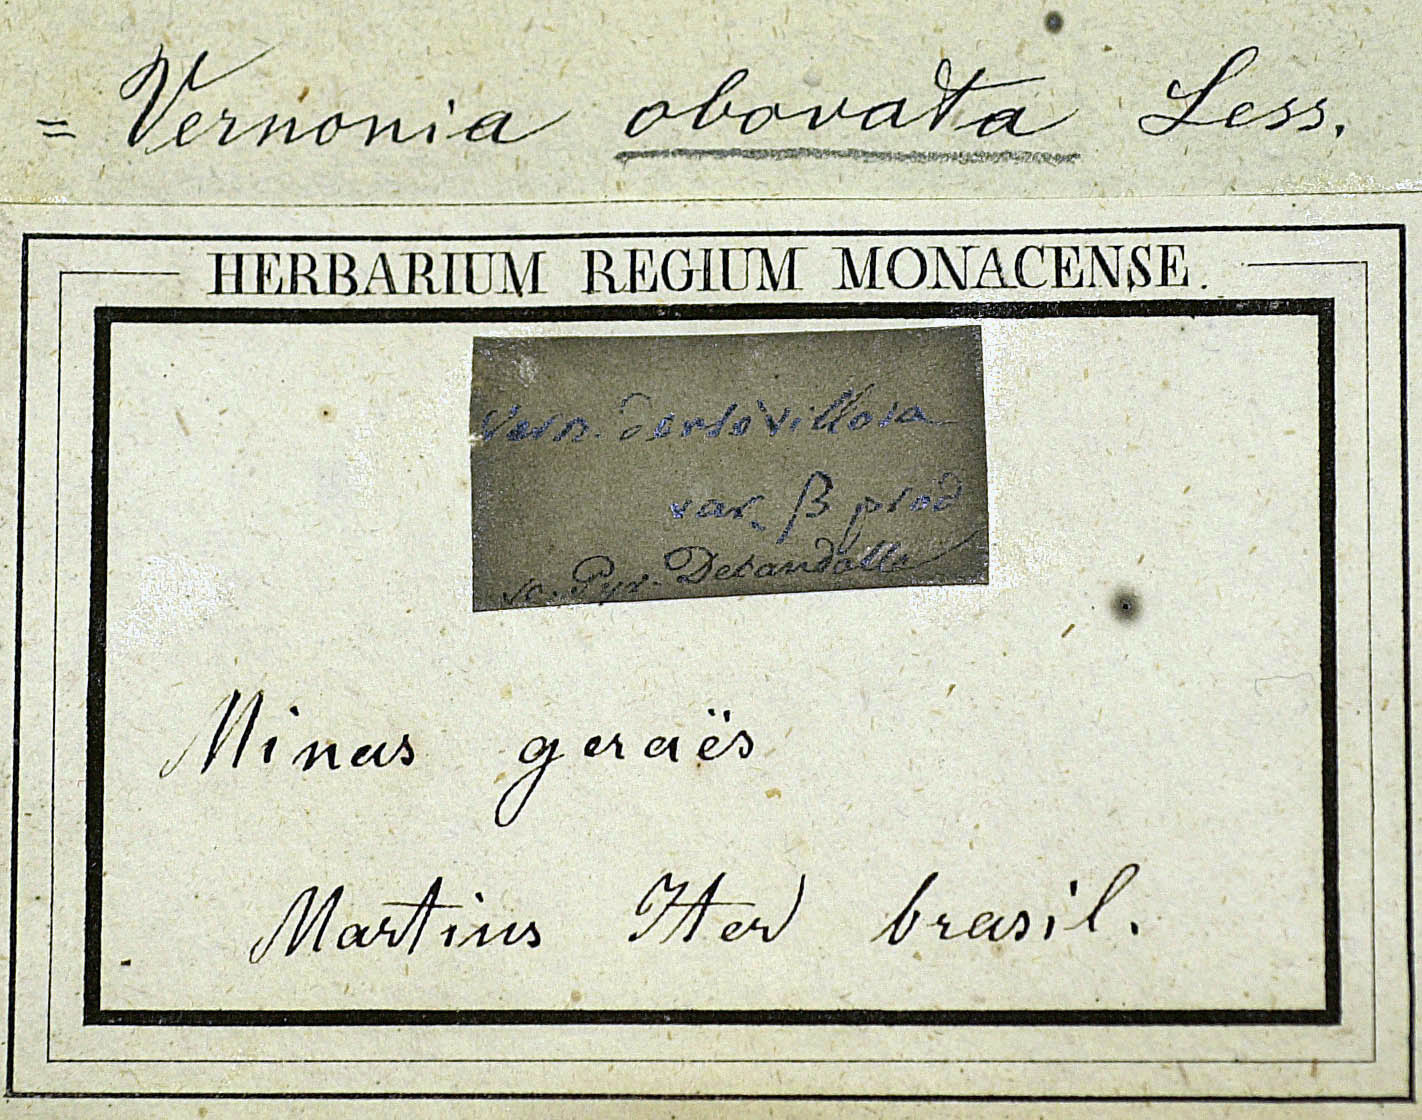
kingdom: Plantae
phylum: Tracheophyta
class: Magnoliopsida
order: Asterales
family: Asteraceae
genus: Chrysolaena
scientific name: Chrysolaena obovata
